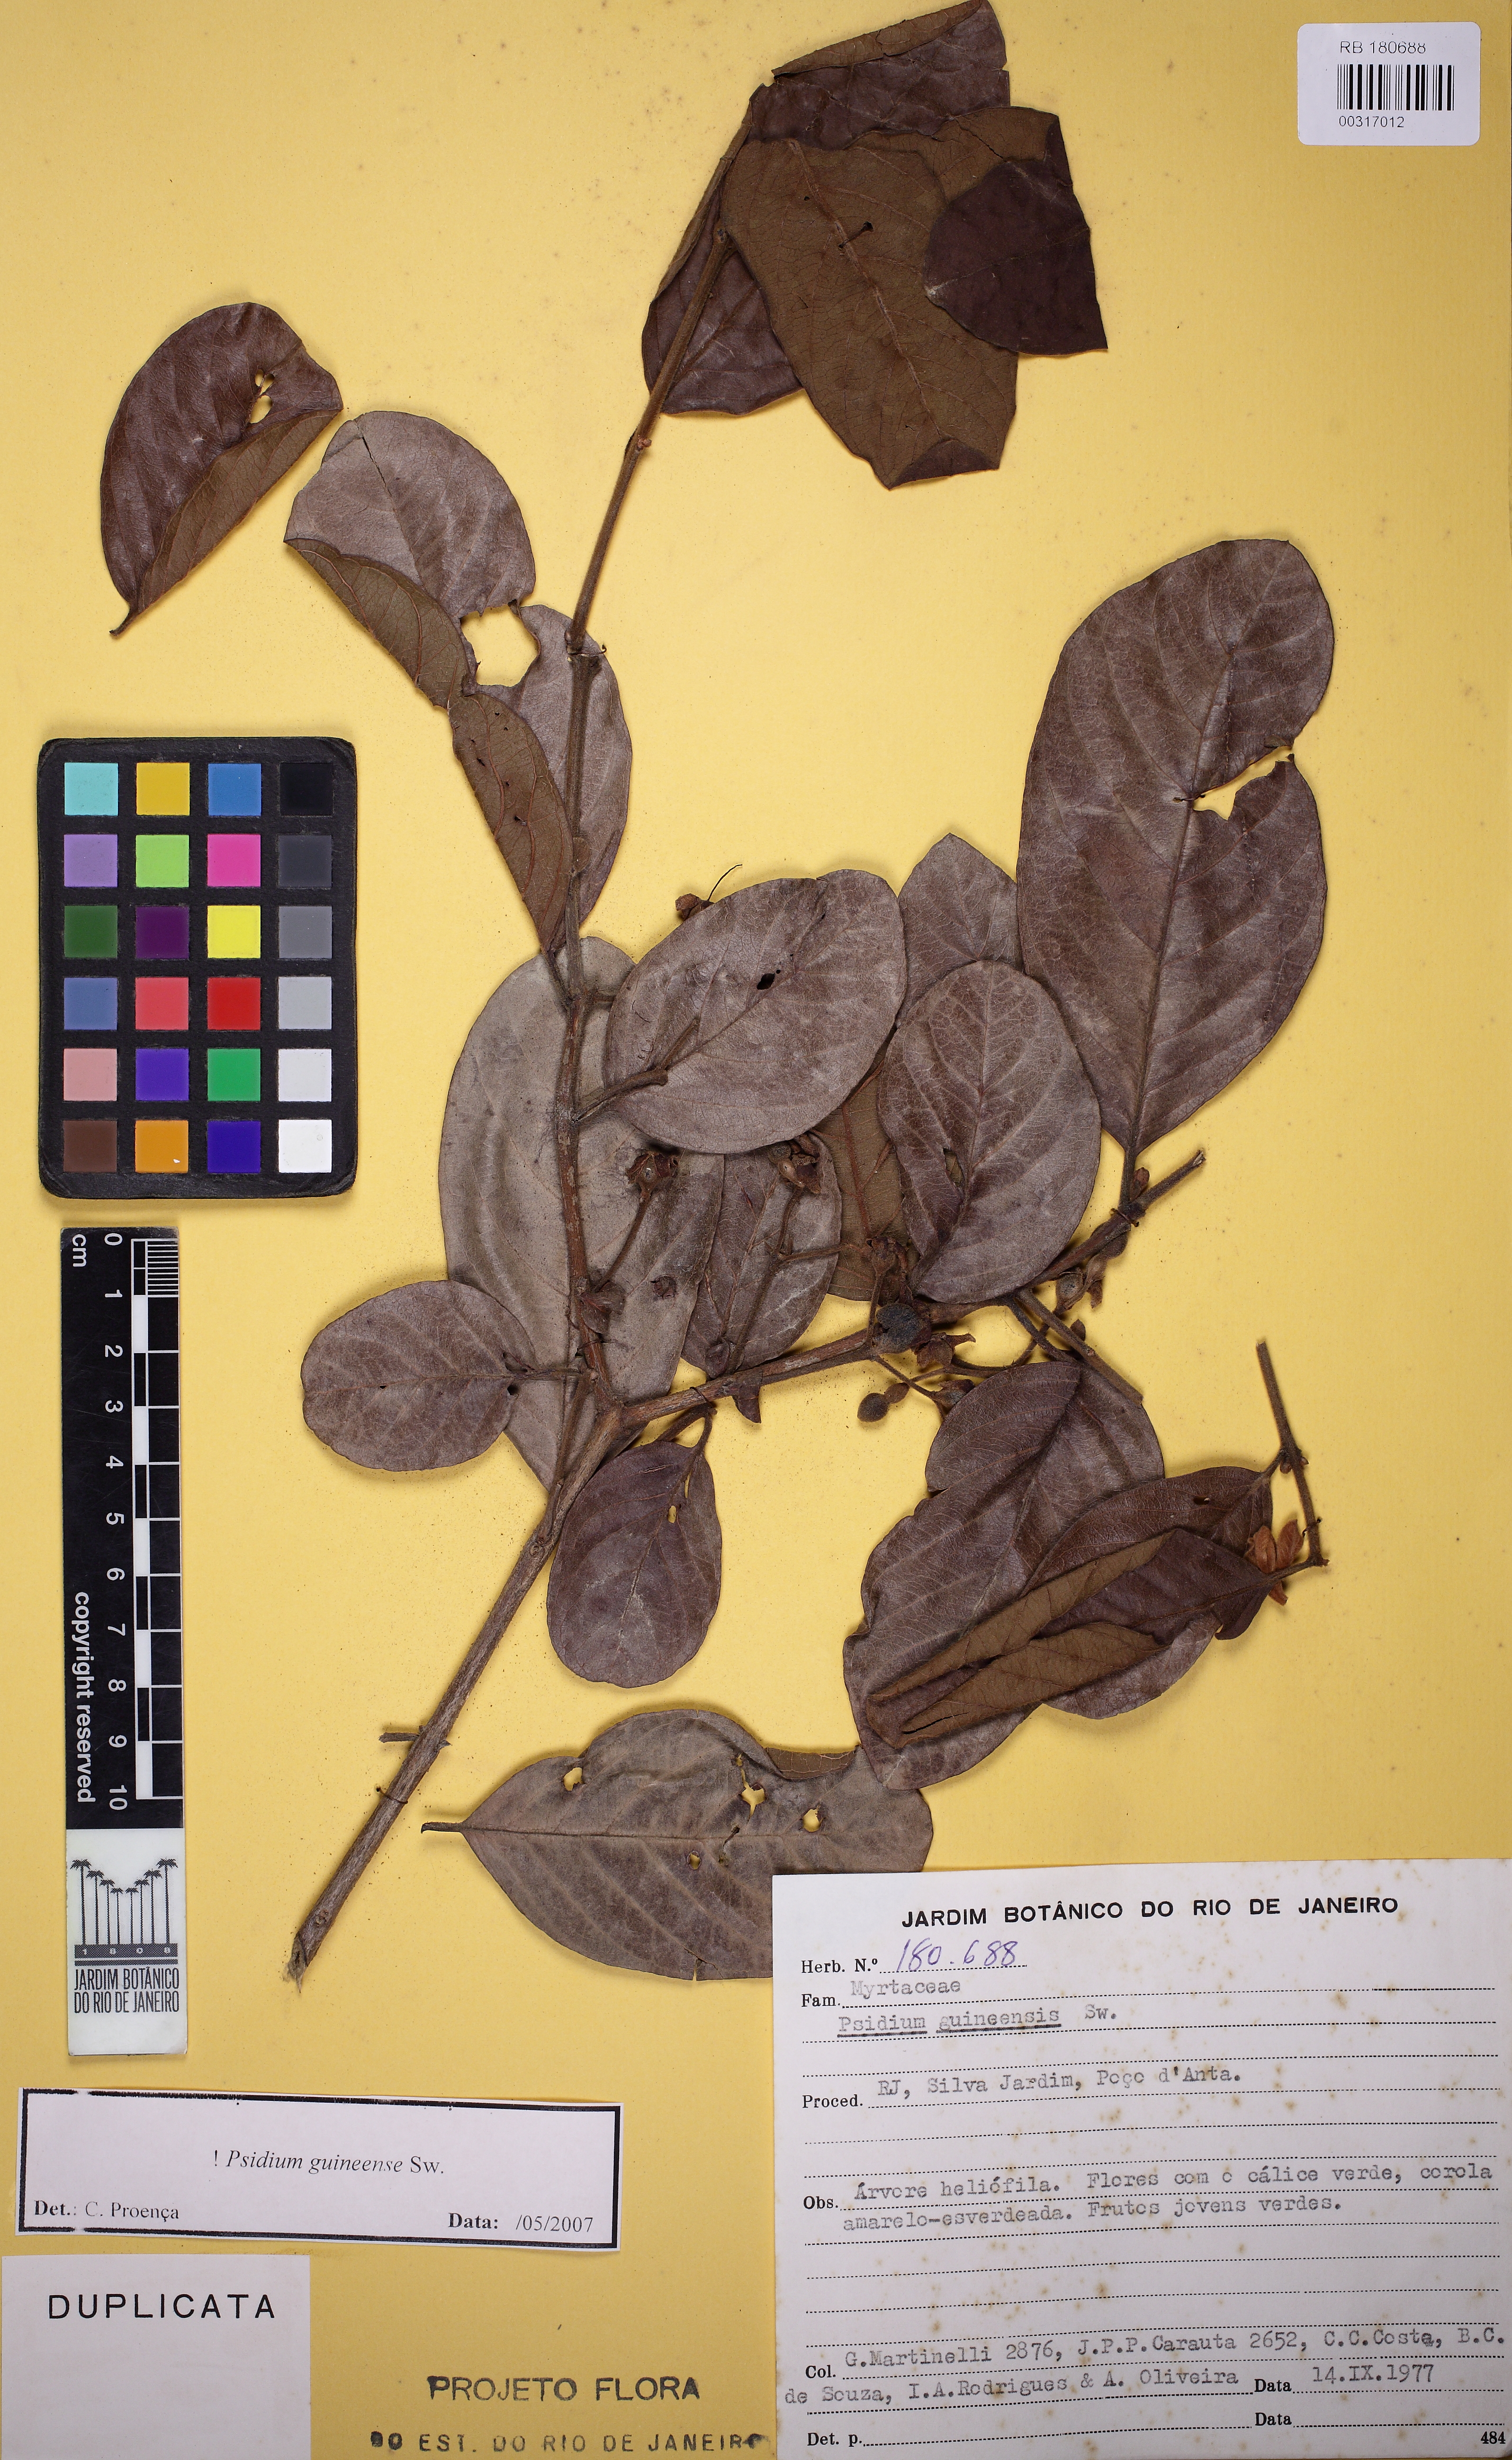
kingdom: Plantae
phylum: Tracheophyta
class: Magnoliopsida
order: Myrtales
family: Myrtaceae
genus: Psidium
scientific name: Psidium guineense
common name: Brazilian guava
